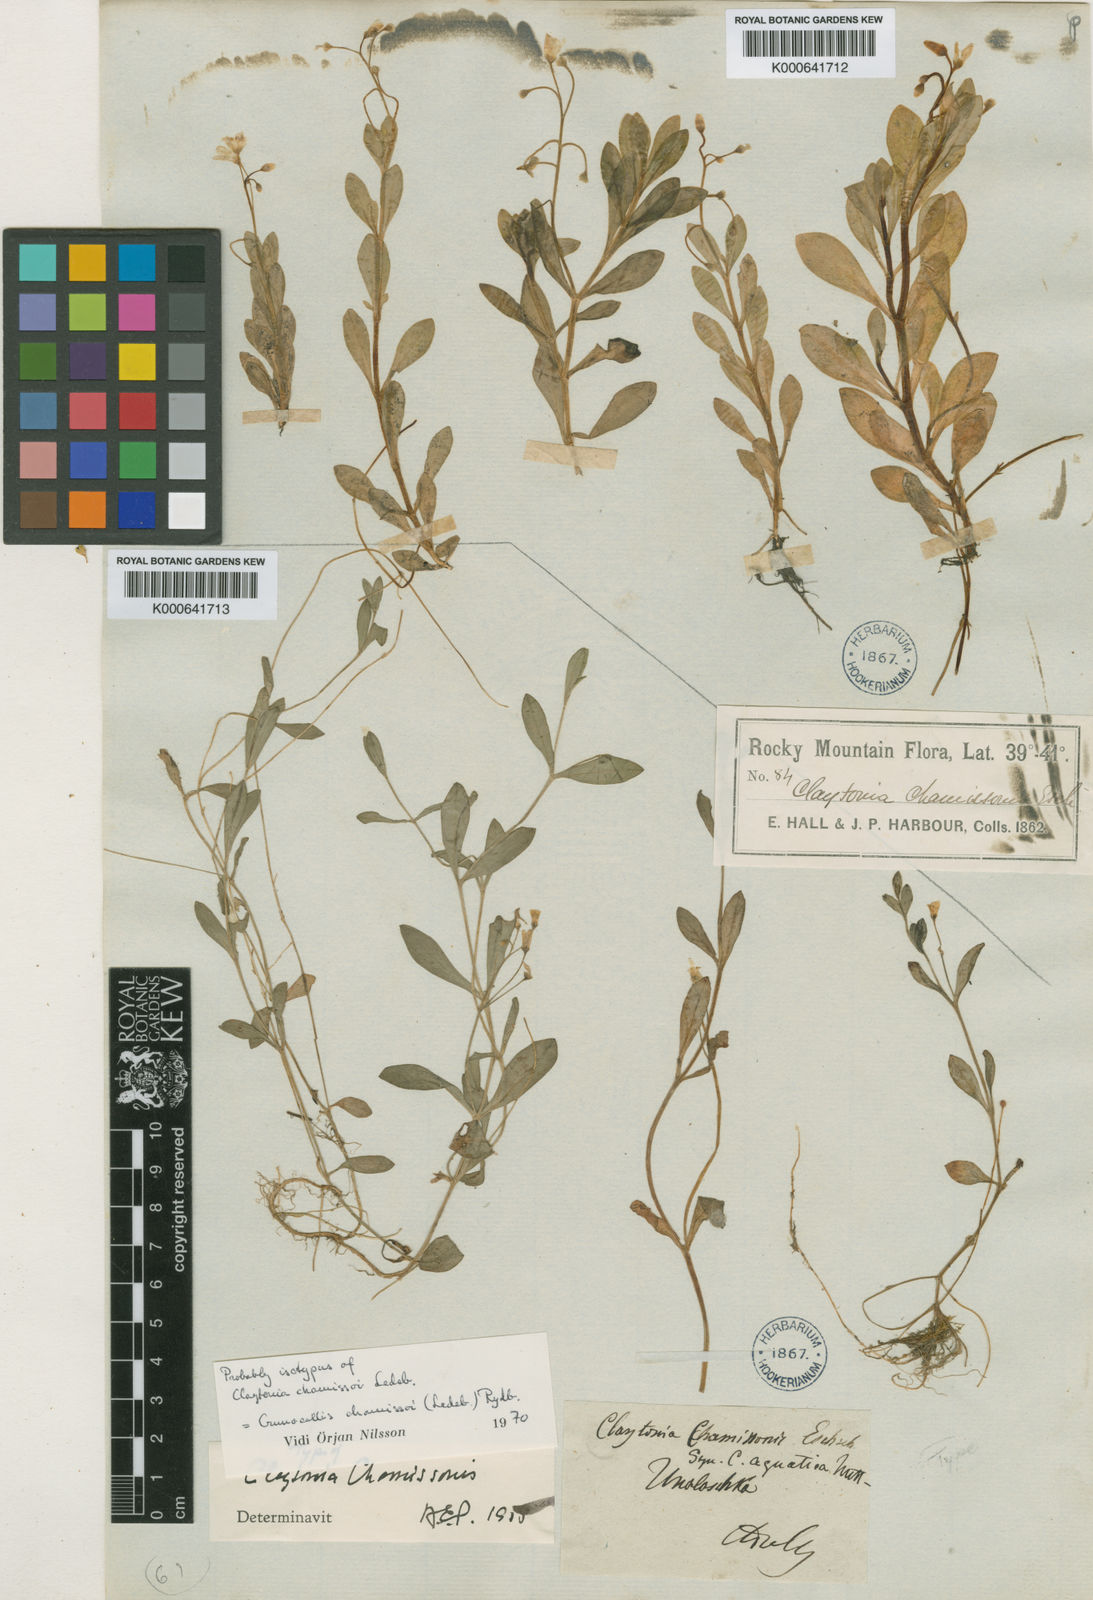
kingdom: Plantae
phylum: Tracheophyta
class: Magnoliopsida
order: Caryophyllales
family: Montiaceae
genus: Montia
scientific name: Montia chamissoi
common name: Chamisso's candyflower
